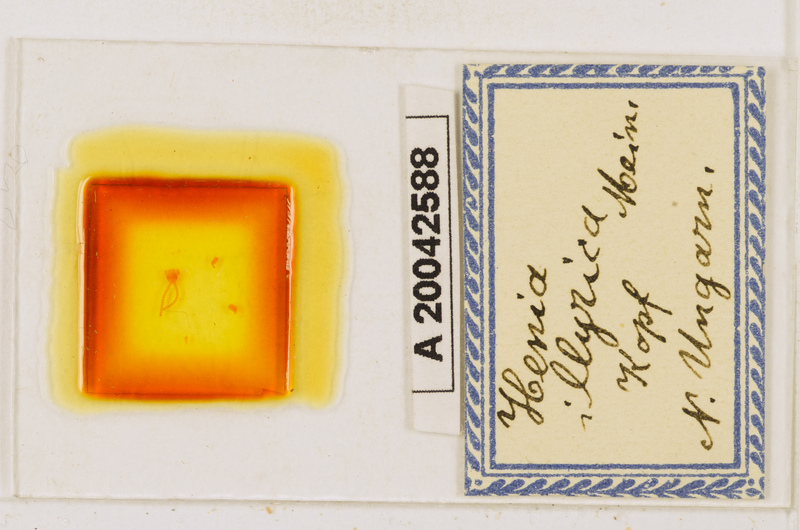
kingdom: Animalia
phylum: Arthropoda
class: Chilopoda
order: Geophilomorpha
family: Dignathodontidae
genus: Henia
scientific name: Henia illyrica
